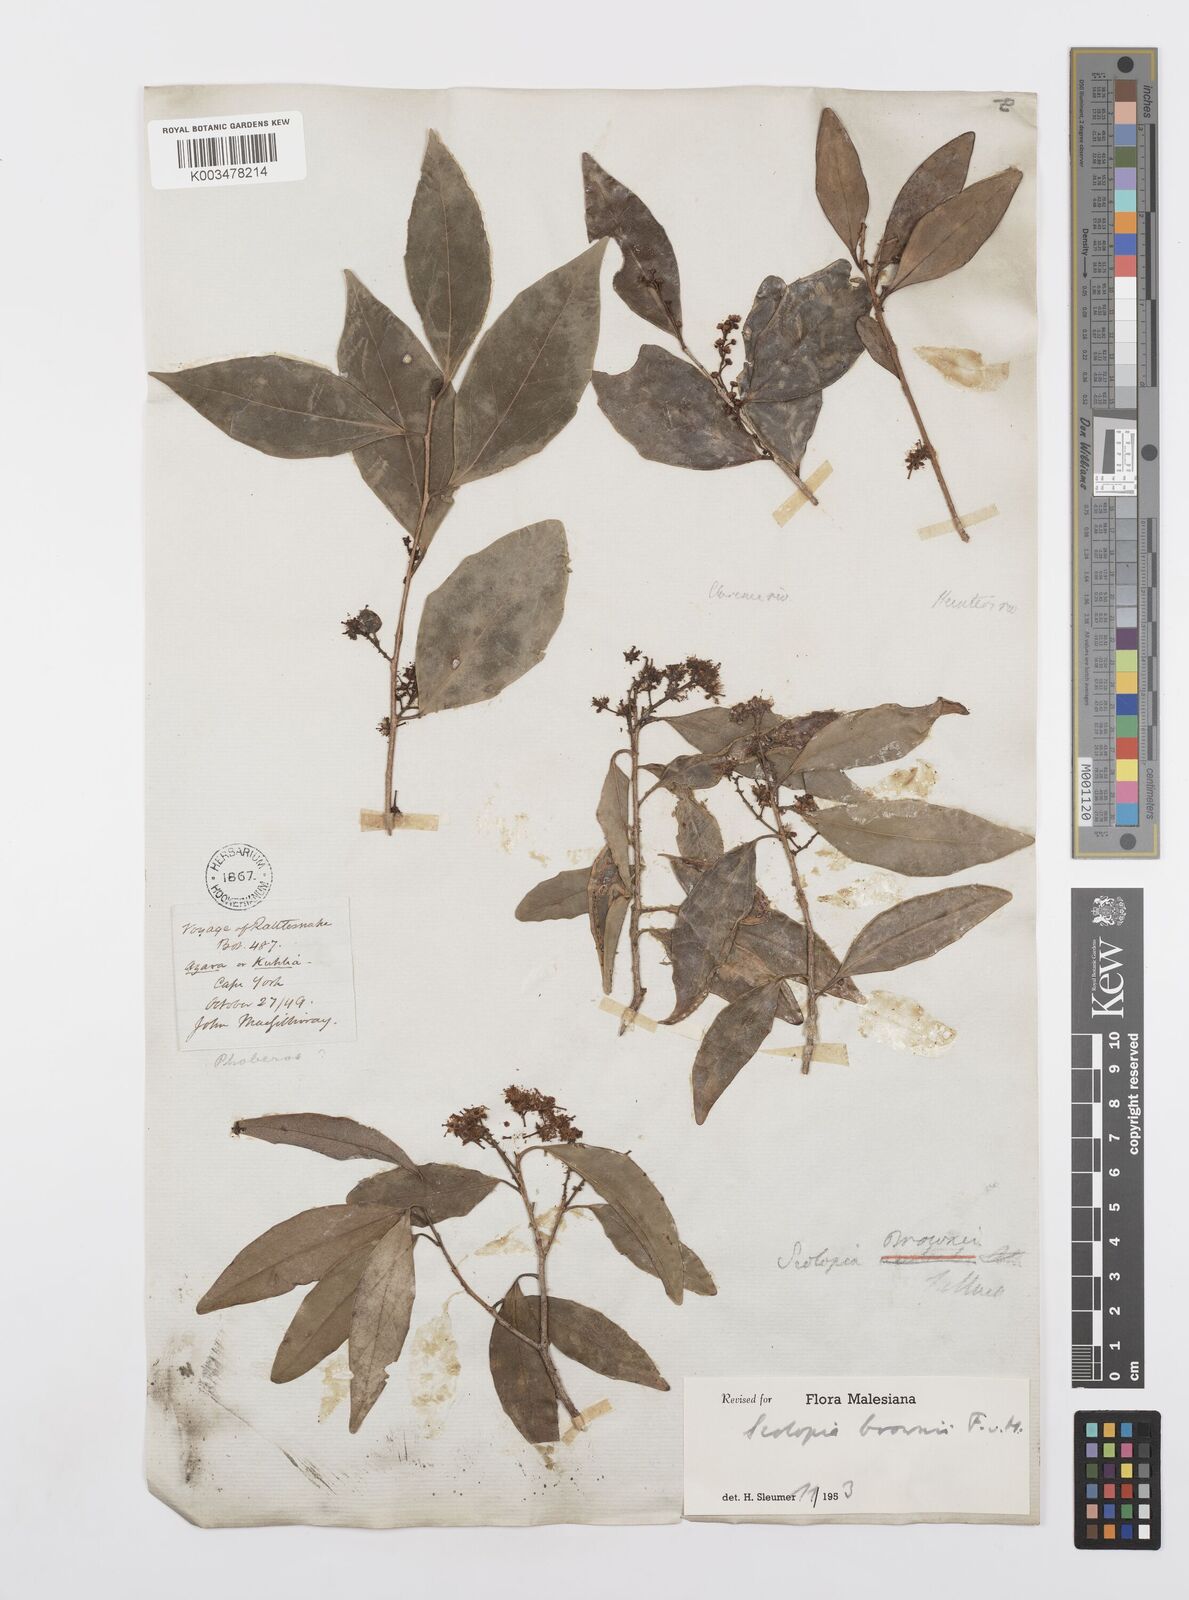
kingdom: Plantae
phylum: Tracheophyta
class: Magnoliopsida
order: Malpighiales
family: Salicaceae
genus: Scolopia
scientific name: Scolopia braunii
